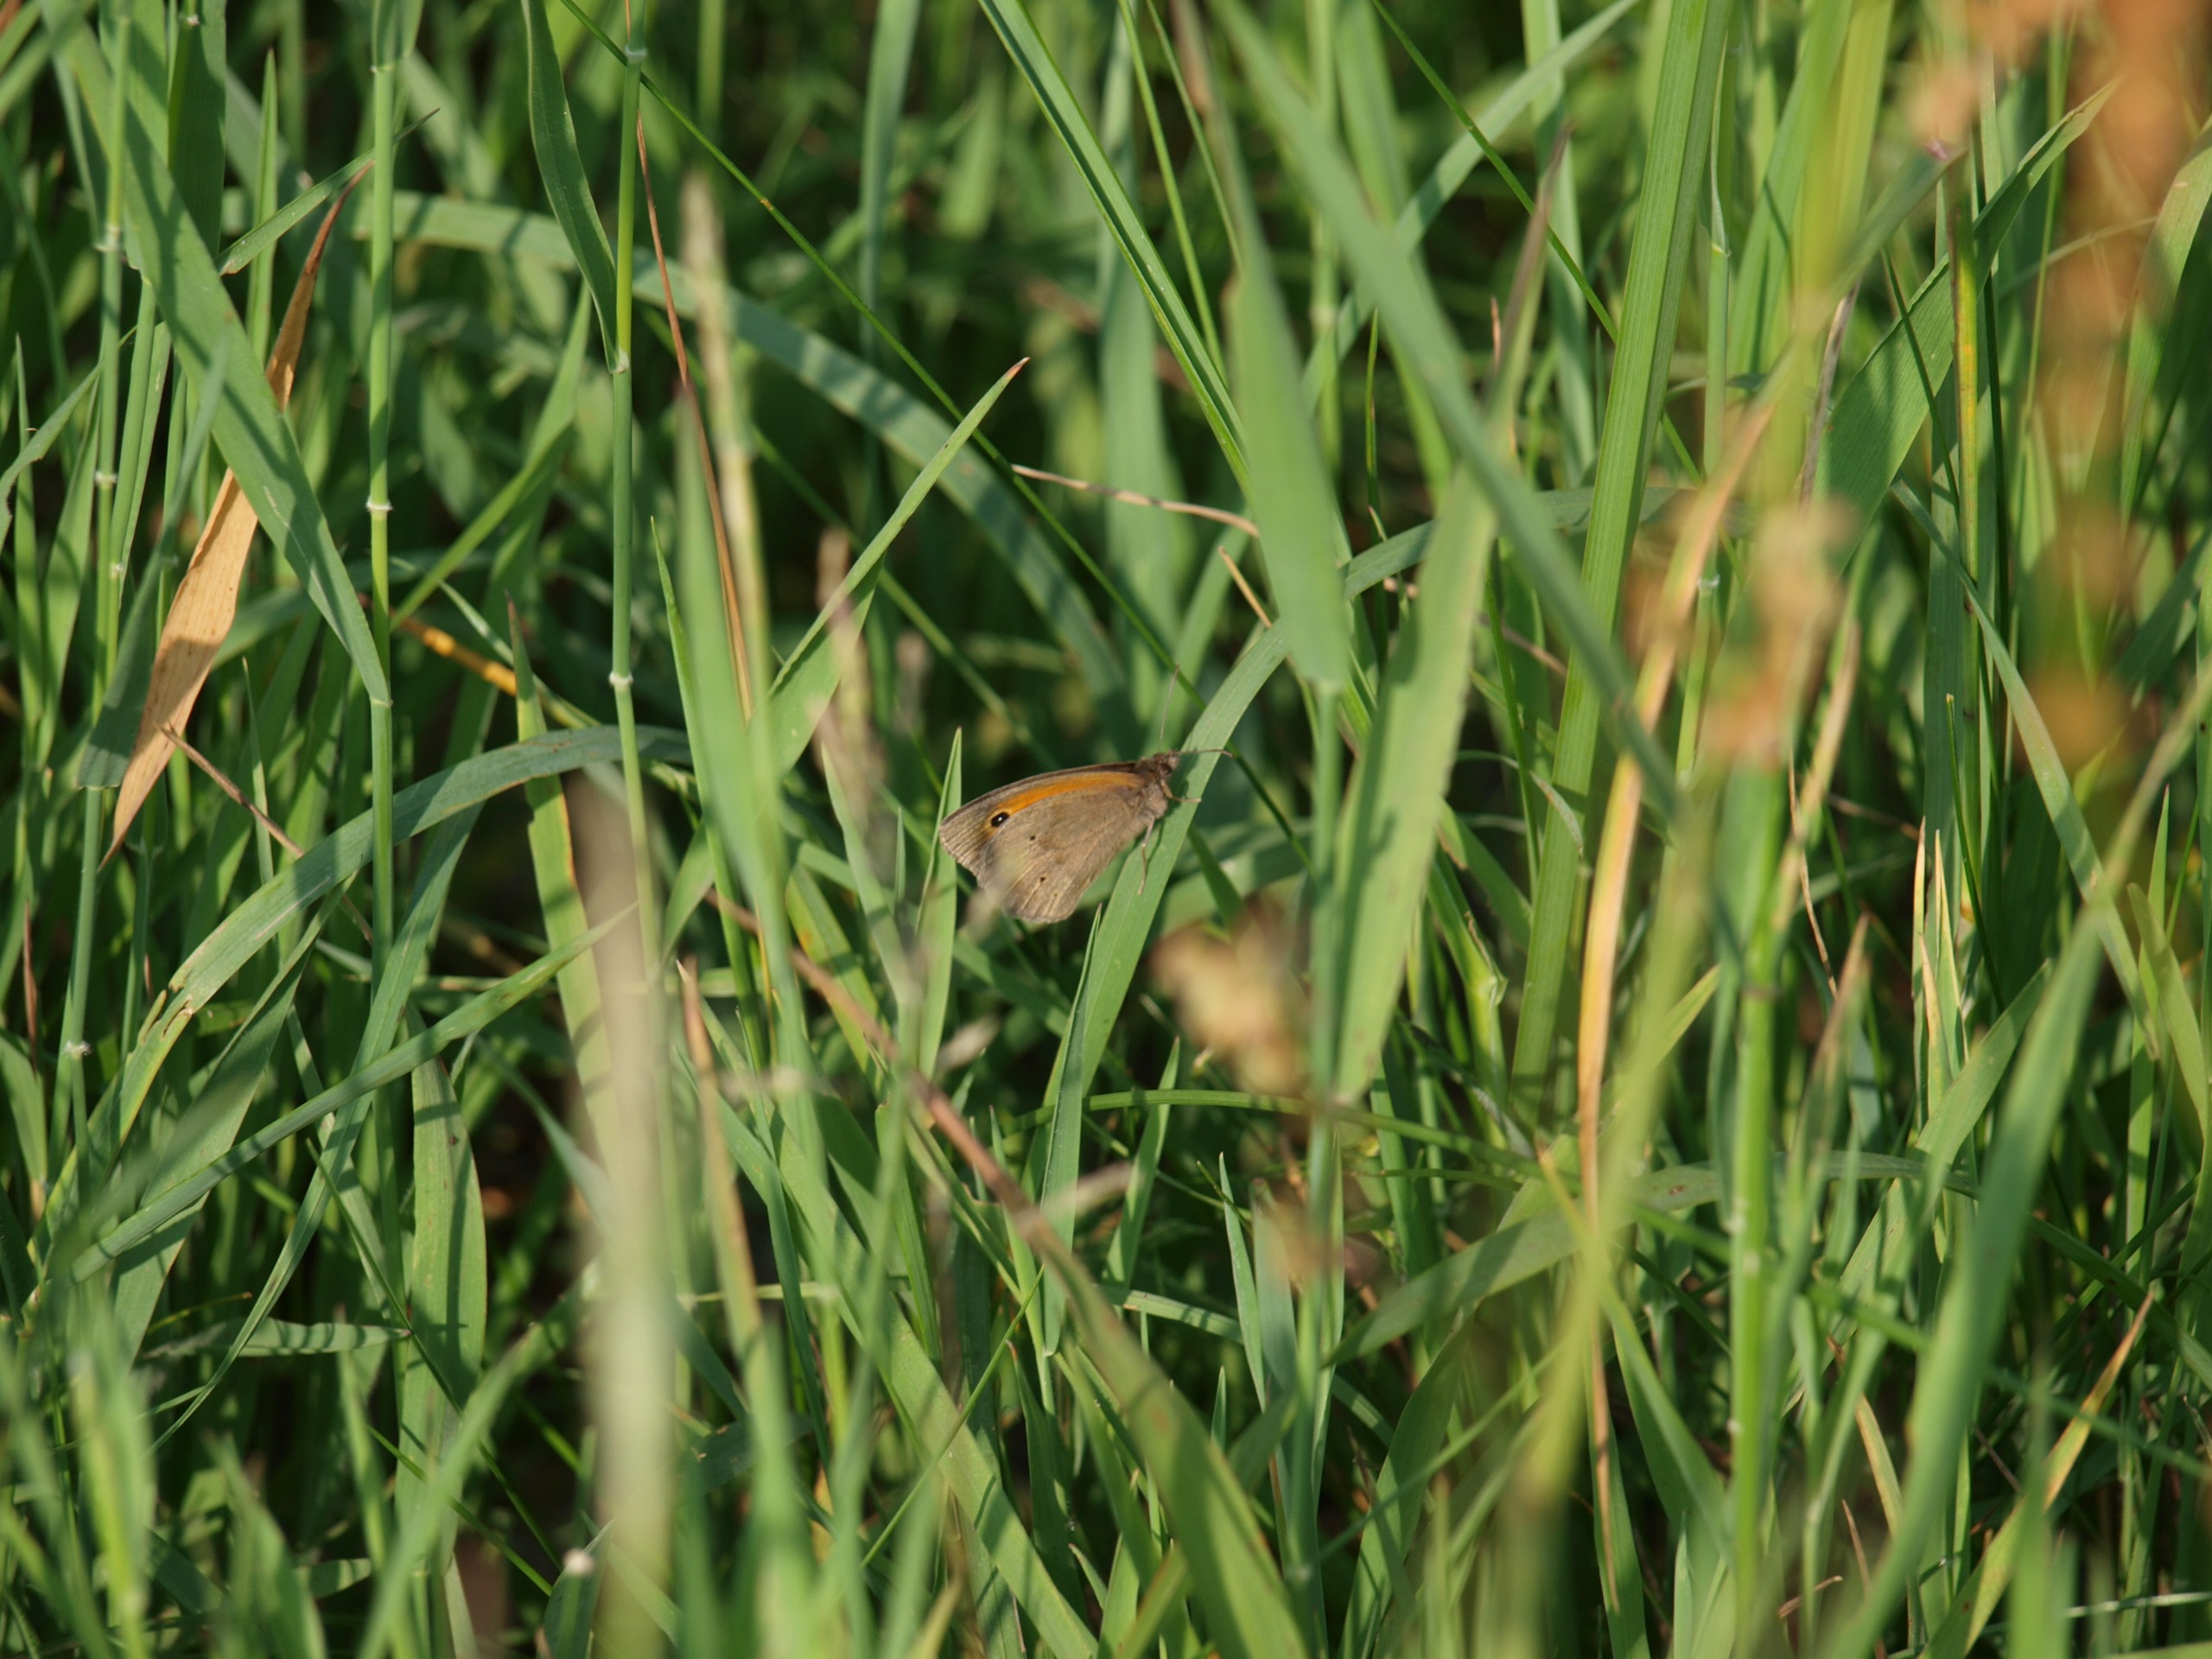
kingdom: Animalia
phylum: Arthropoda
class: Insecta
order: Lepidoptera
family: Nymphalidae
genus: Maniola
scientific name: Maniola jurtina
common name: Græsrandøje
